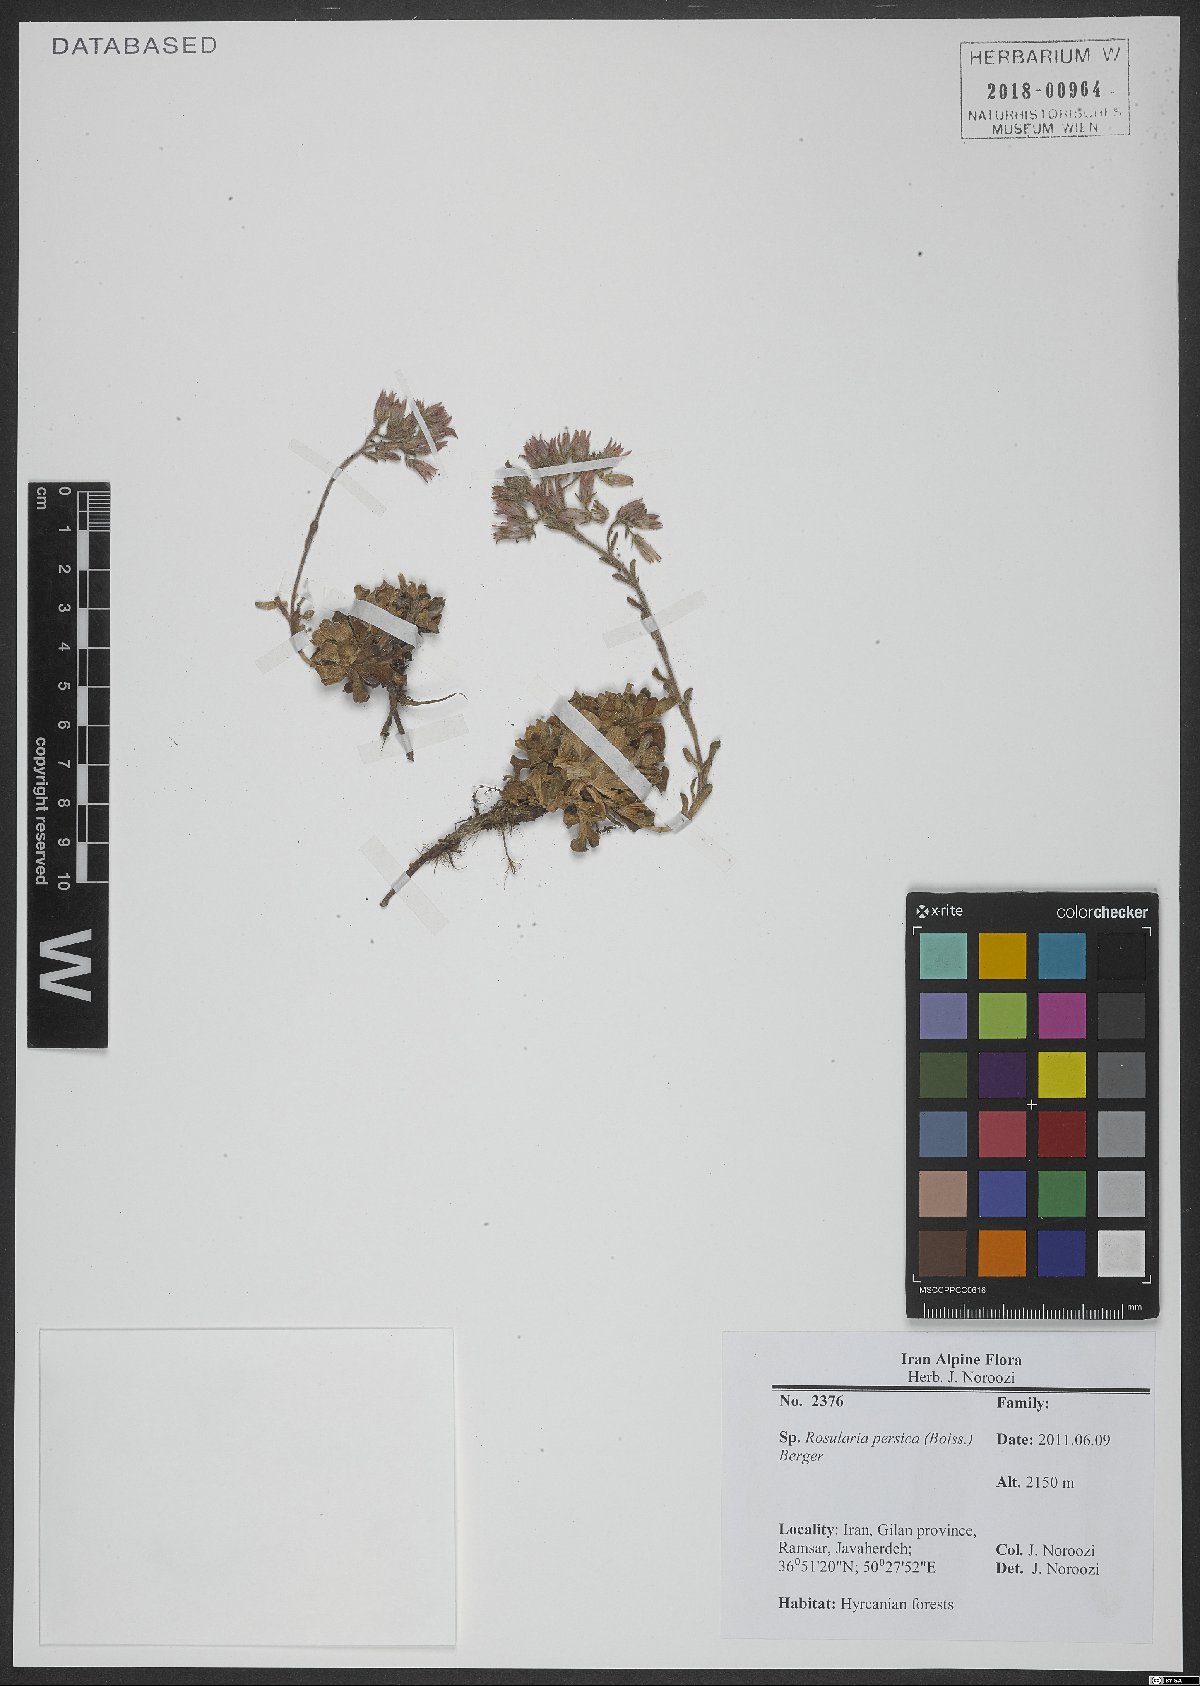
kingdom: Plantae
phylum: Tracheophyta
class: Magnoliopsida
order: Saxifragales
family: Crassulaceae
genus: Rosularia
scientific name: Rosularia sempervivum
